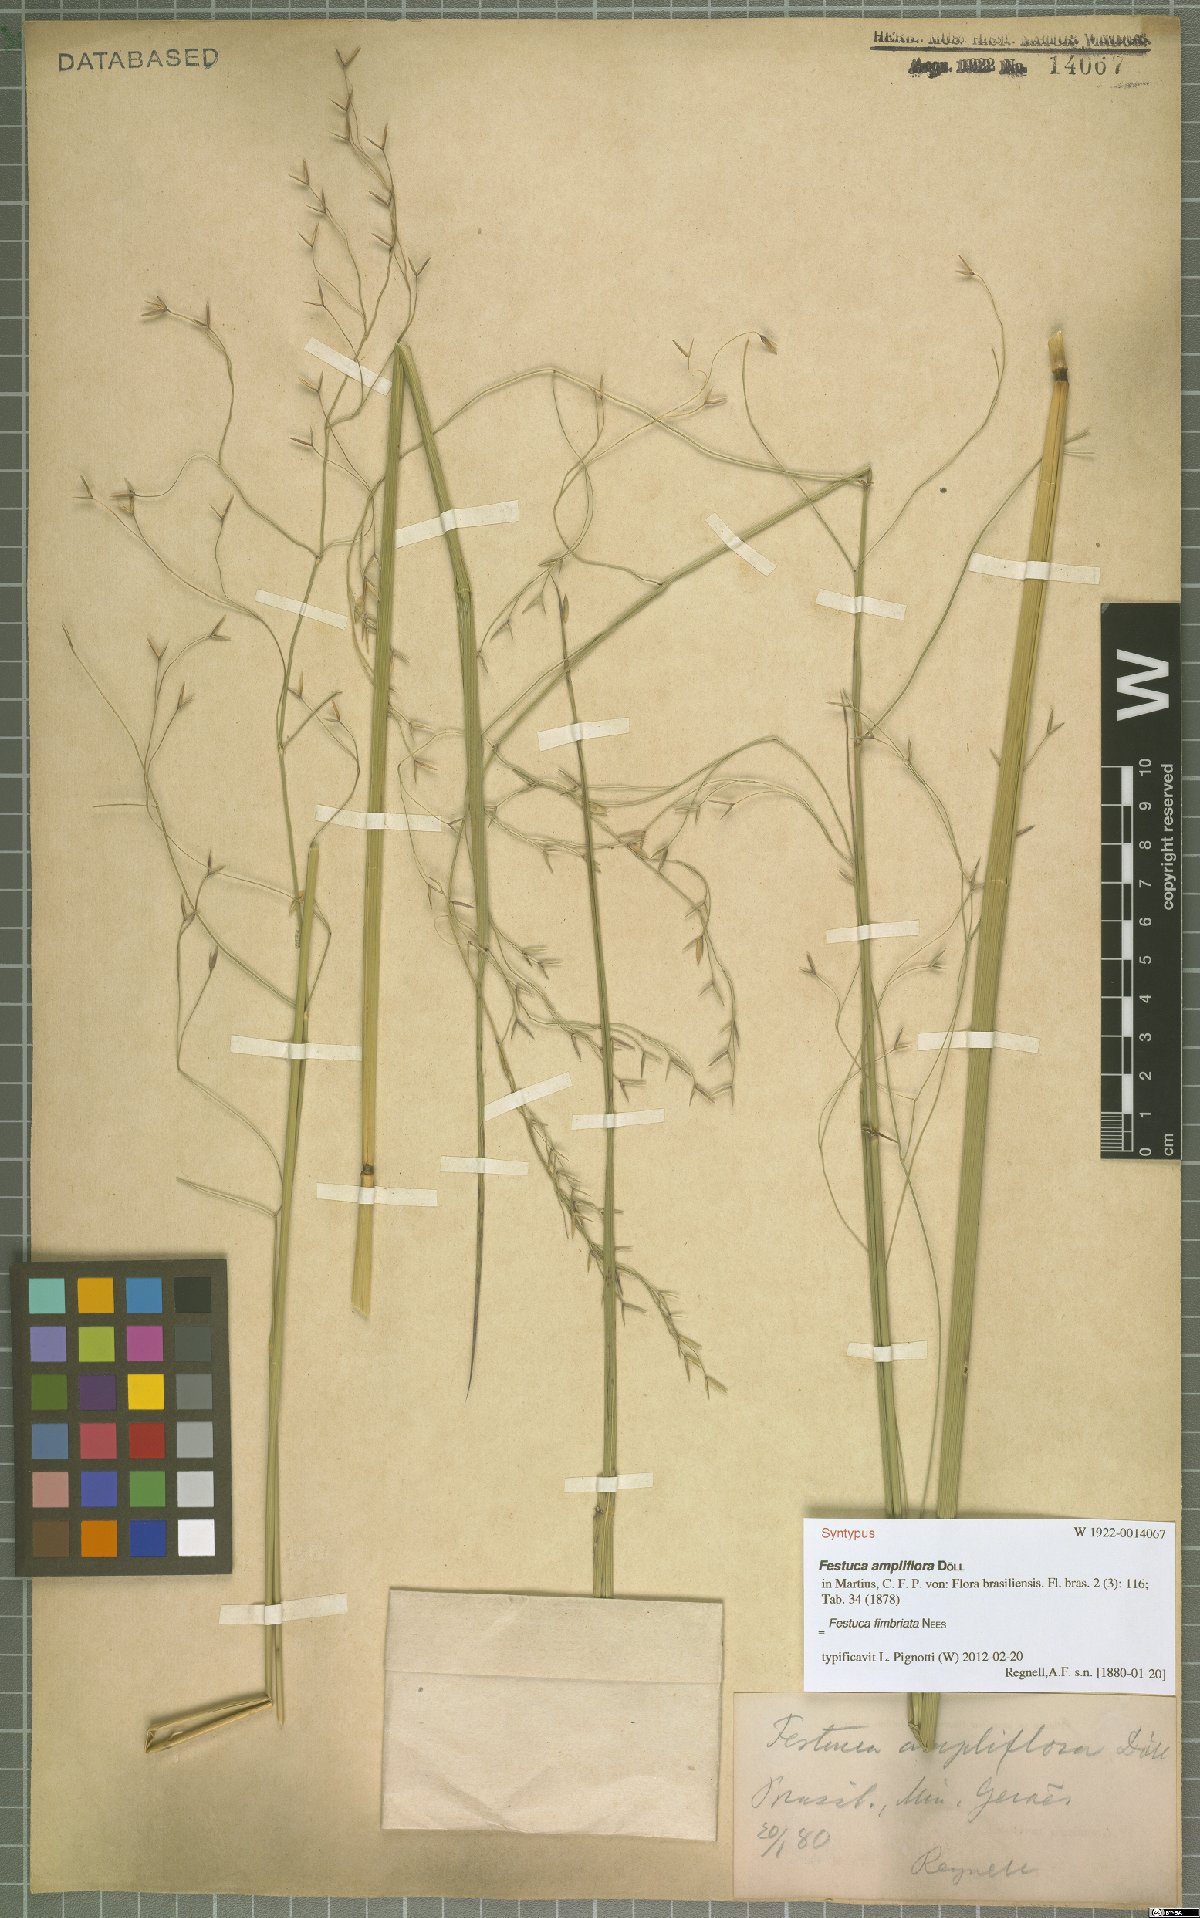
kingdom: Plantae
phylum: Tracheophyta
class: Liliopsida
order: Poales
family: Poaceae
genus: Festuca
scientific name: Festuca fimbriata
